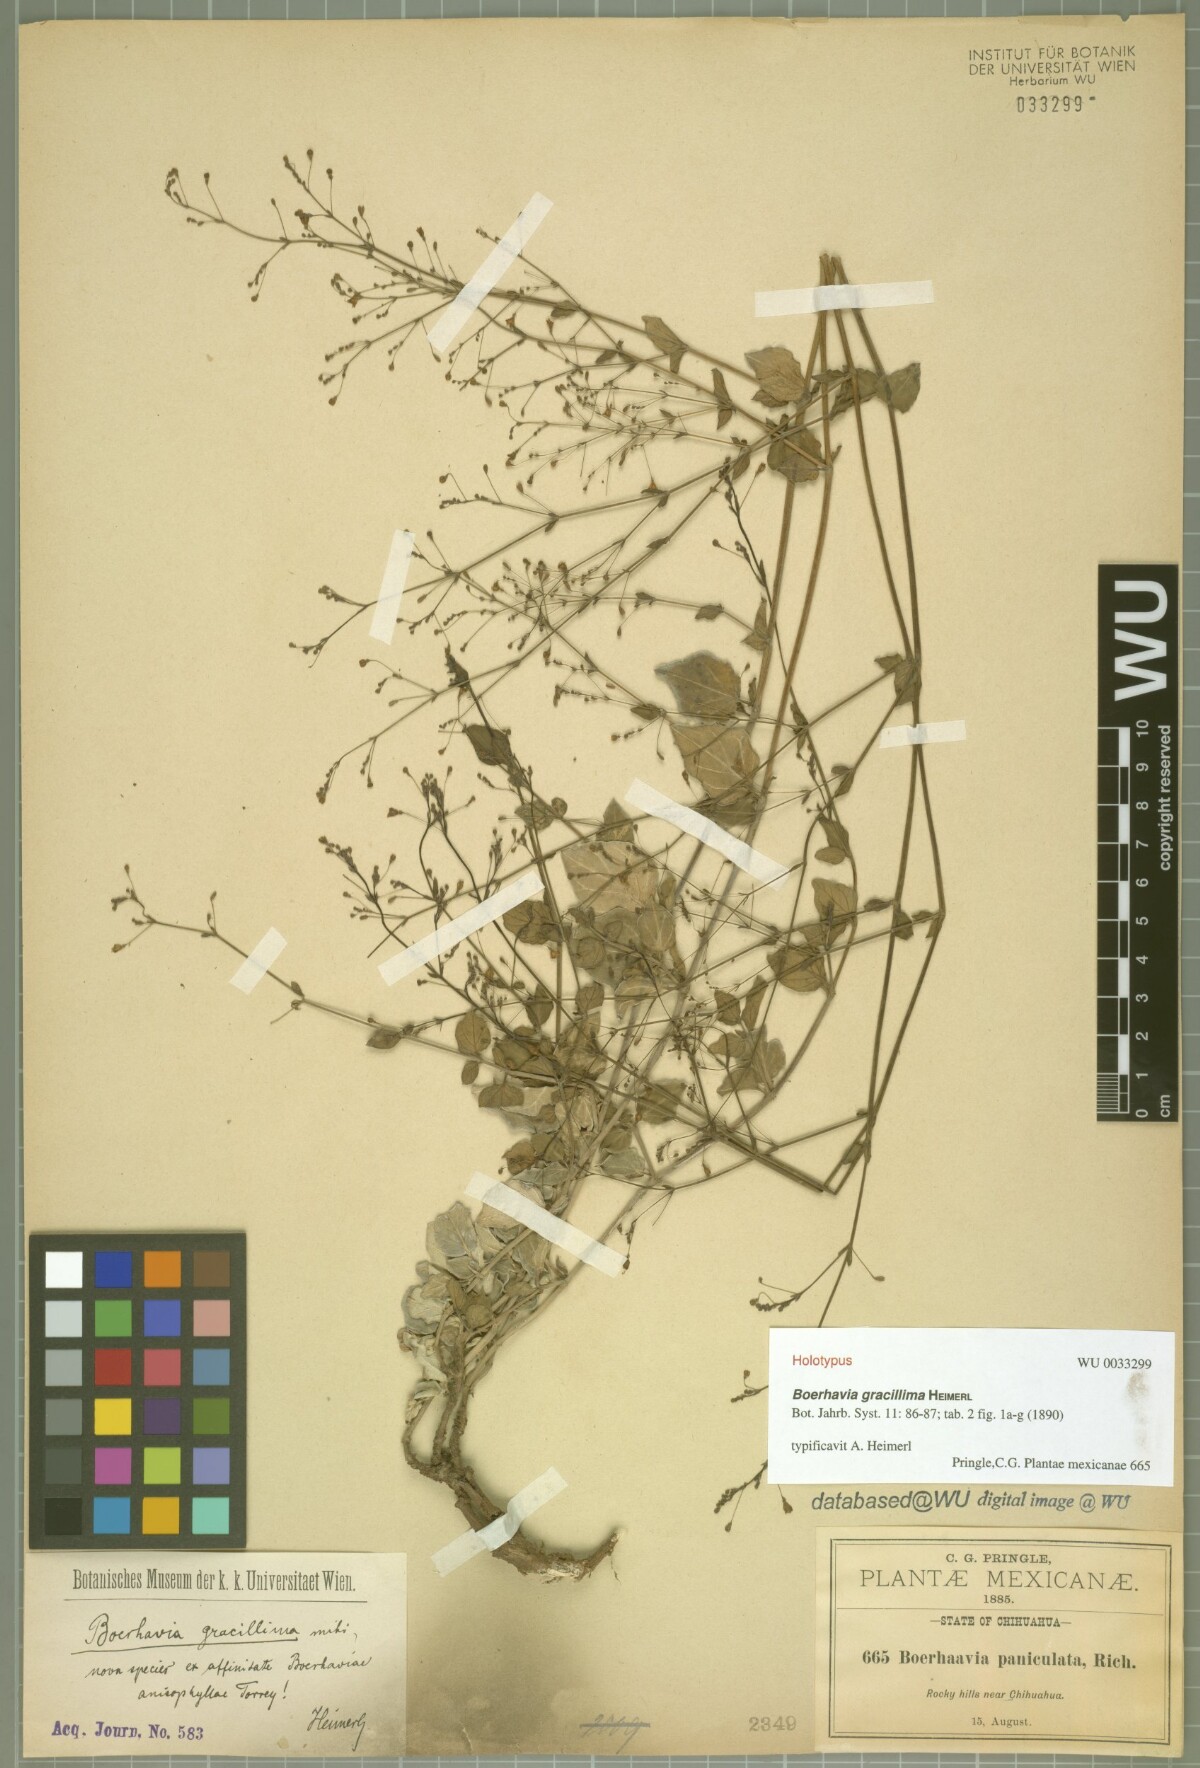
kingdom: Plantae
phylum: Tracheophyta
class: Magnoliopsida
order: Caryophyllales
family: Nyctaginaceae
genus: Boerhavia
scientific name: Boerhavia gracillima
